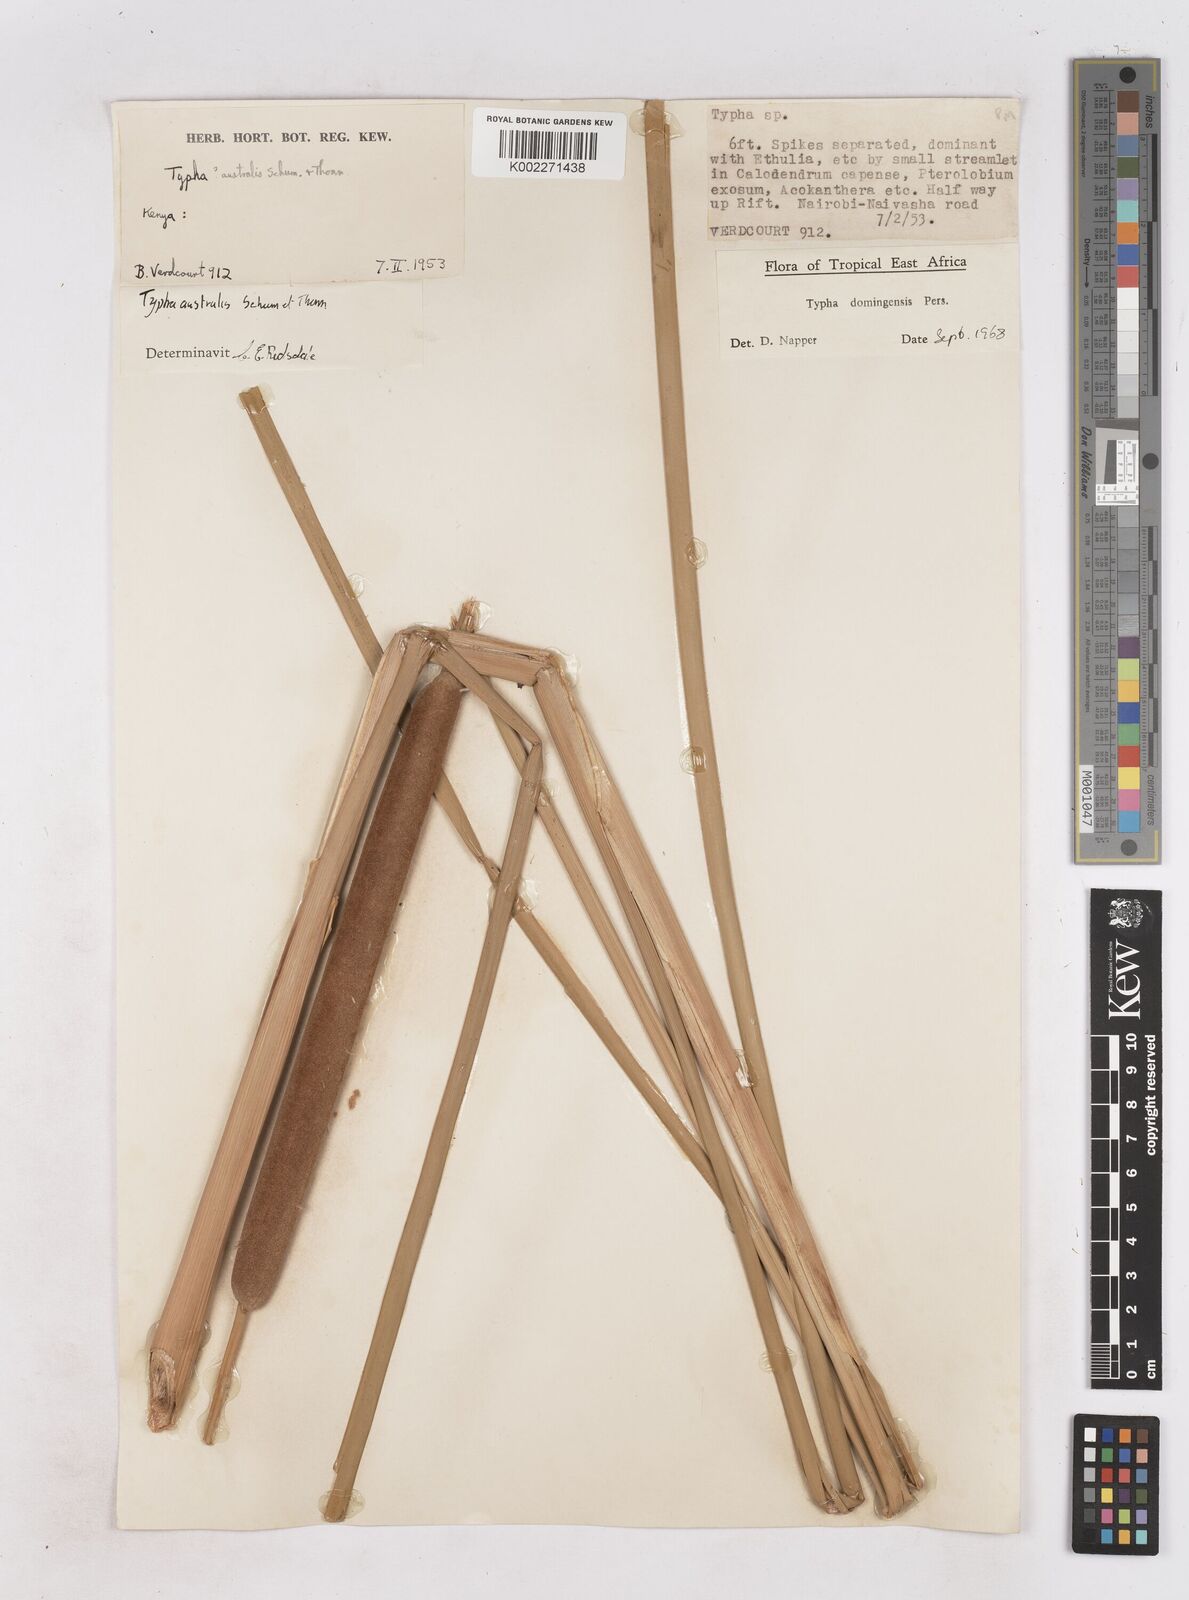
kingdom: Plantae
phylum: Tracheophyta
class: Liliopsida
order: Poales
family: Typhaceae
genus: Typha
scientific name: Typha domingensis
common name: Southern cattail
